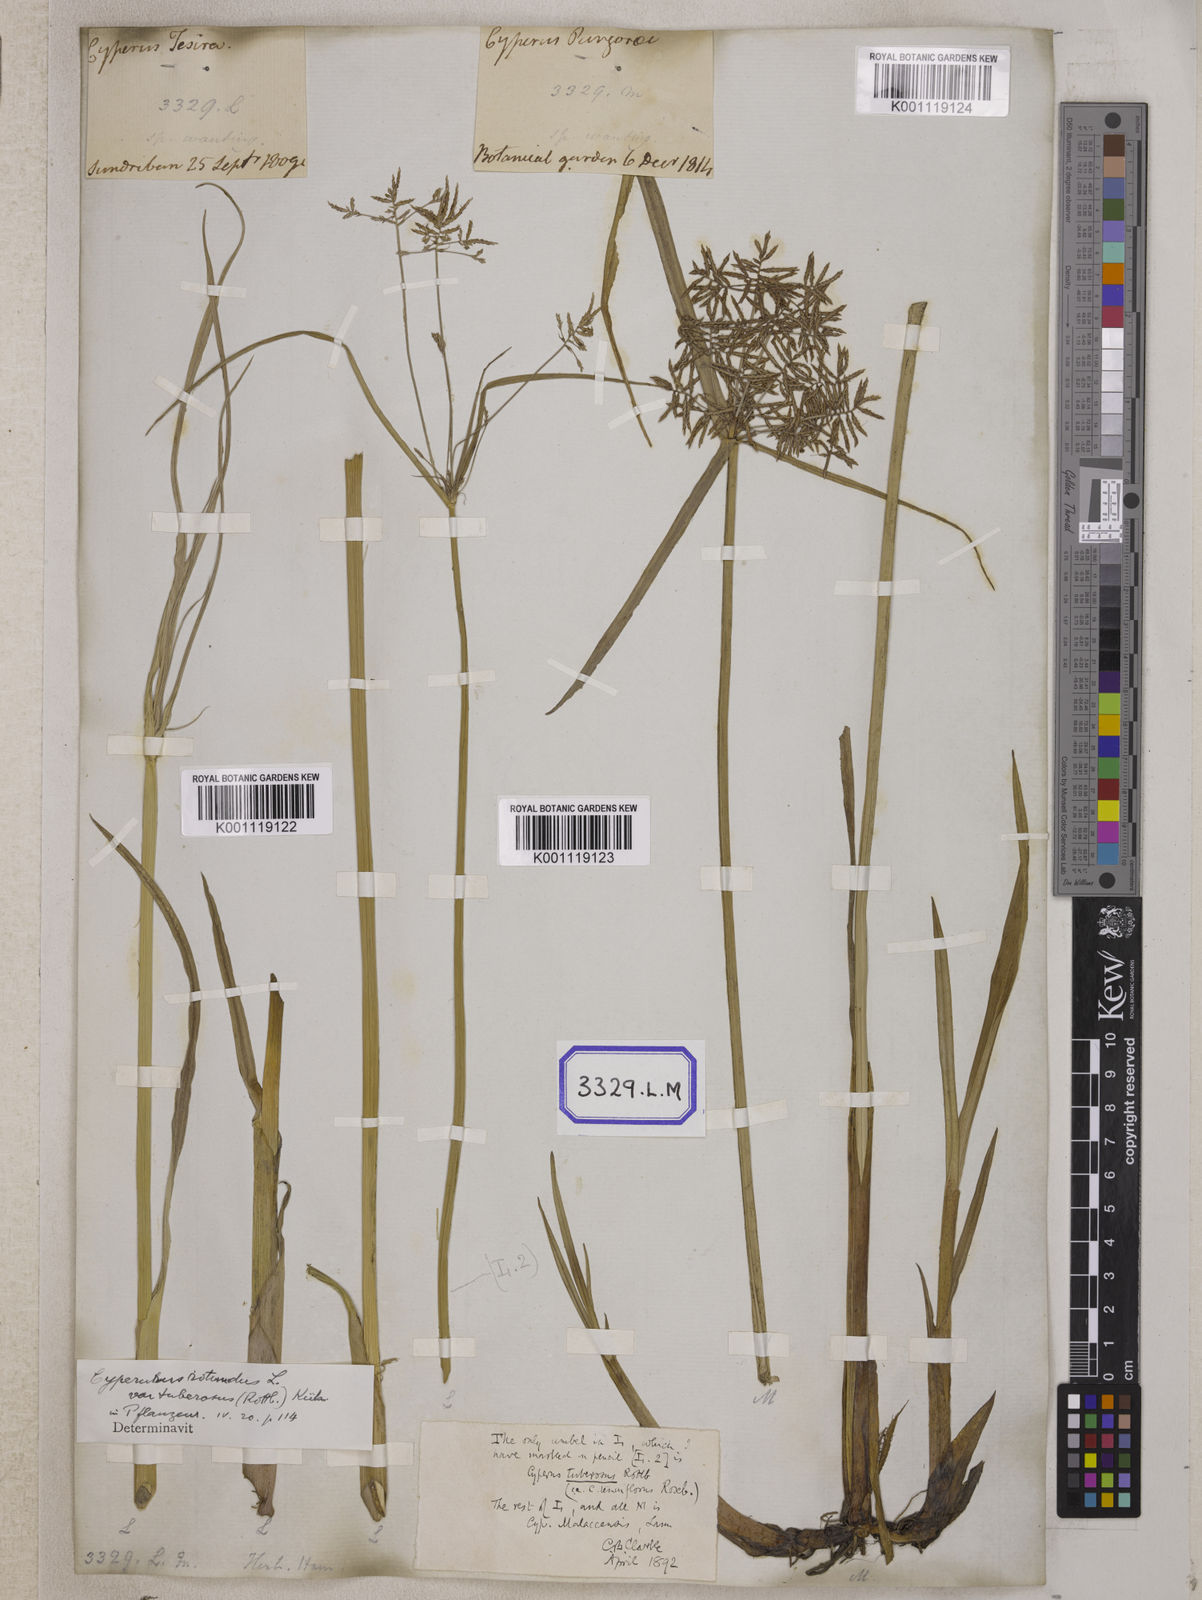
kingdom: Plantae
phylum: Tracheophyta
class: Liliopsida
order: Poales
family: Cyperaceae
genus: Cyperus
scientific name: Cyperus
